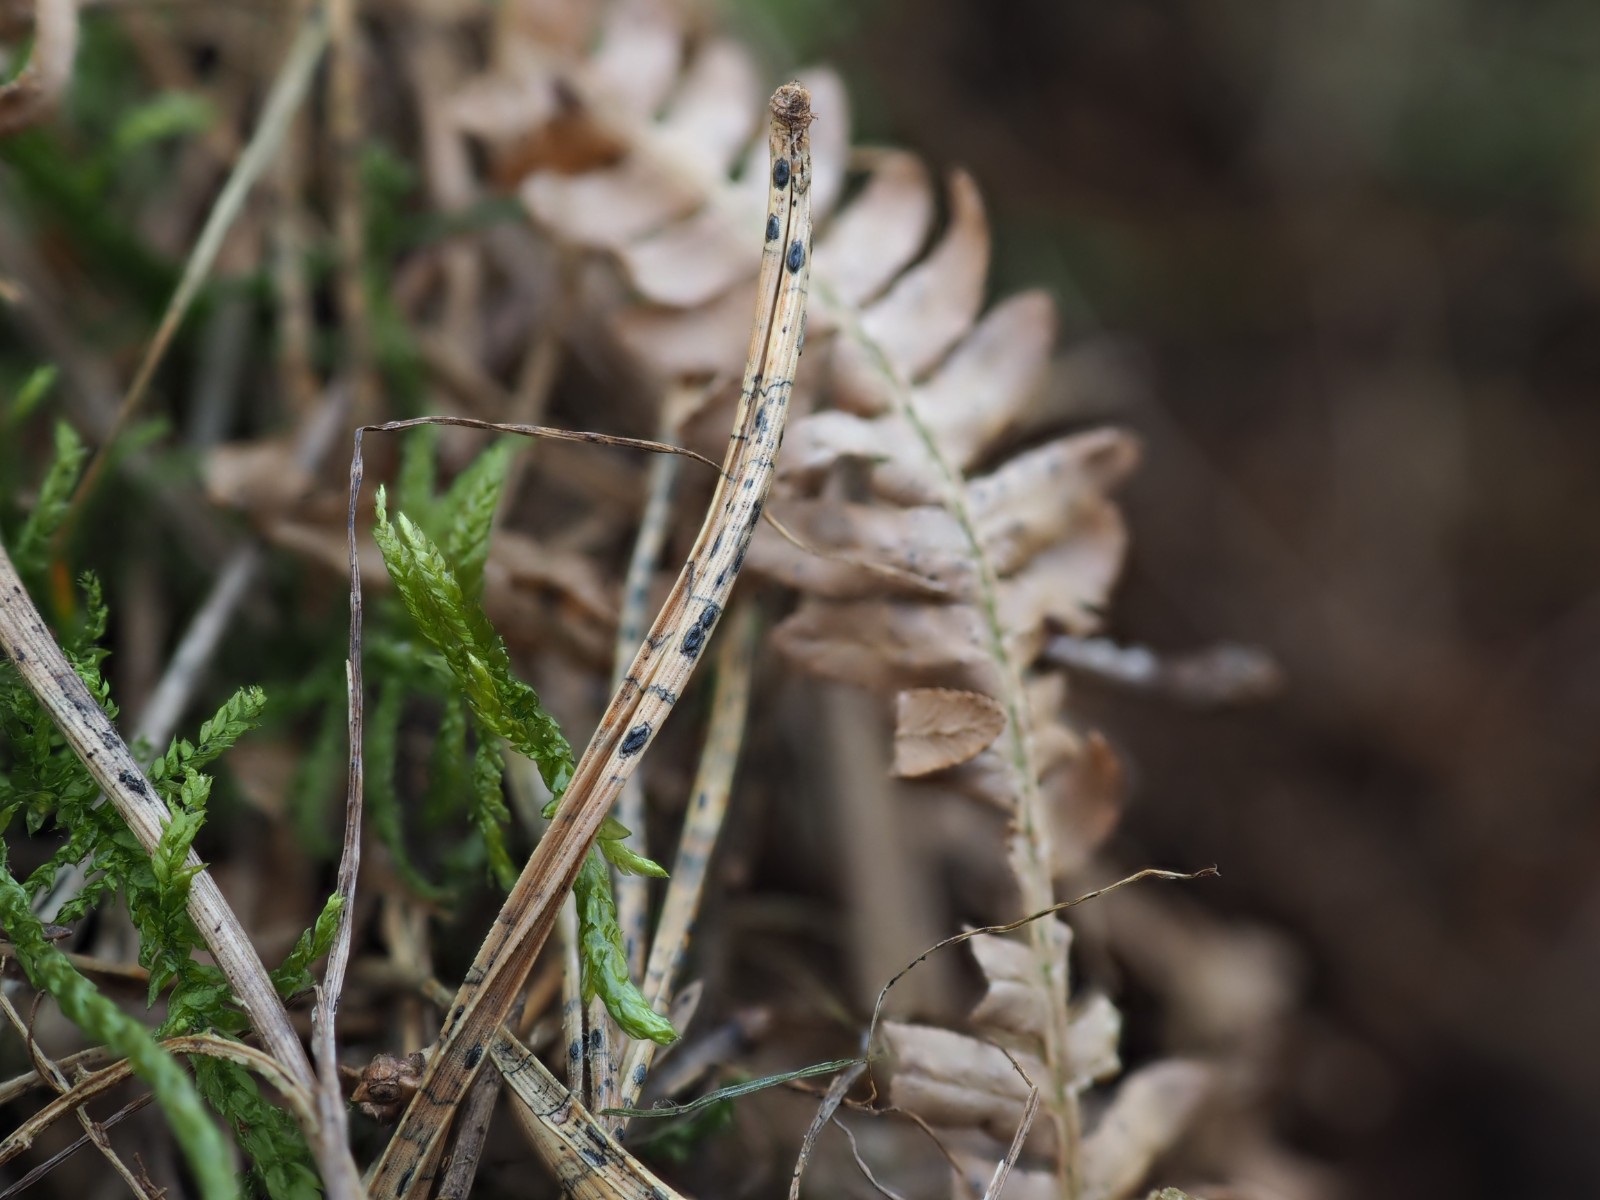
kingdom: Fungi
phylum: Ascomycota
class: Leotiomycetes
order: Rhytismatales
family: Rhytismataceae
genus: Lophodermium
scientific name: Lophodermium pinastri
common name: fyrre-fureplet
